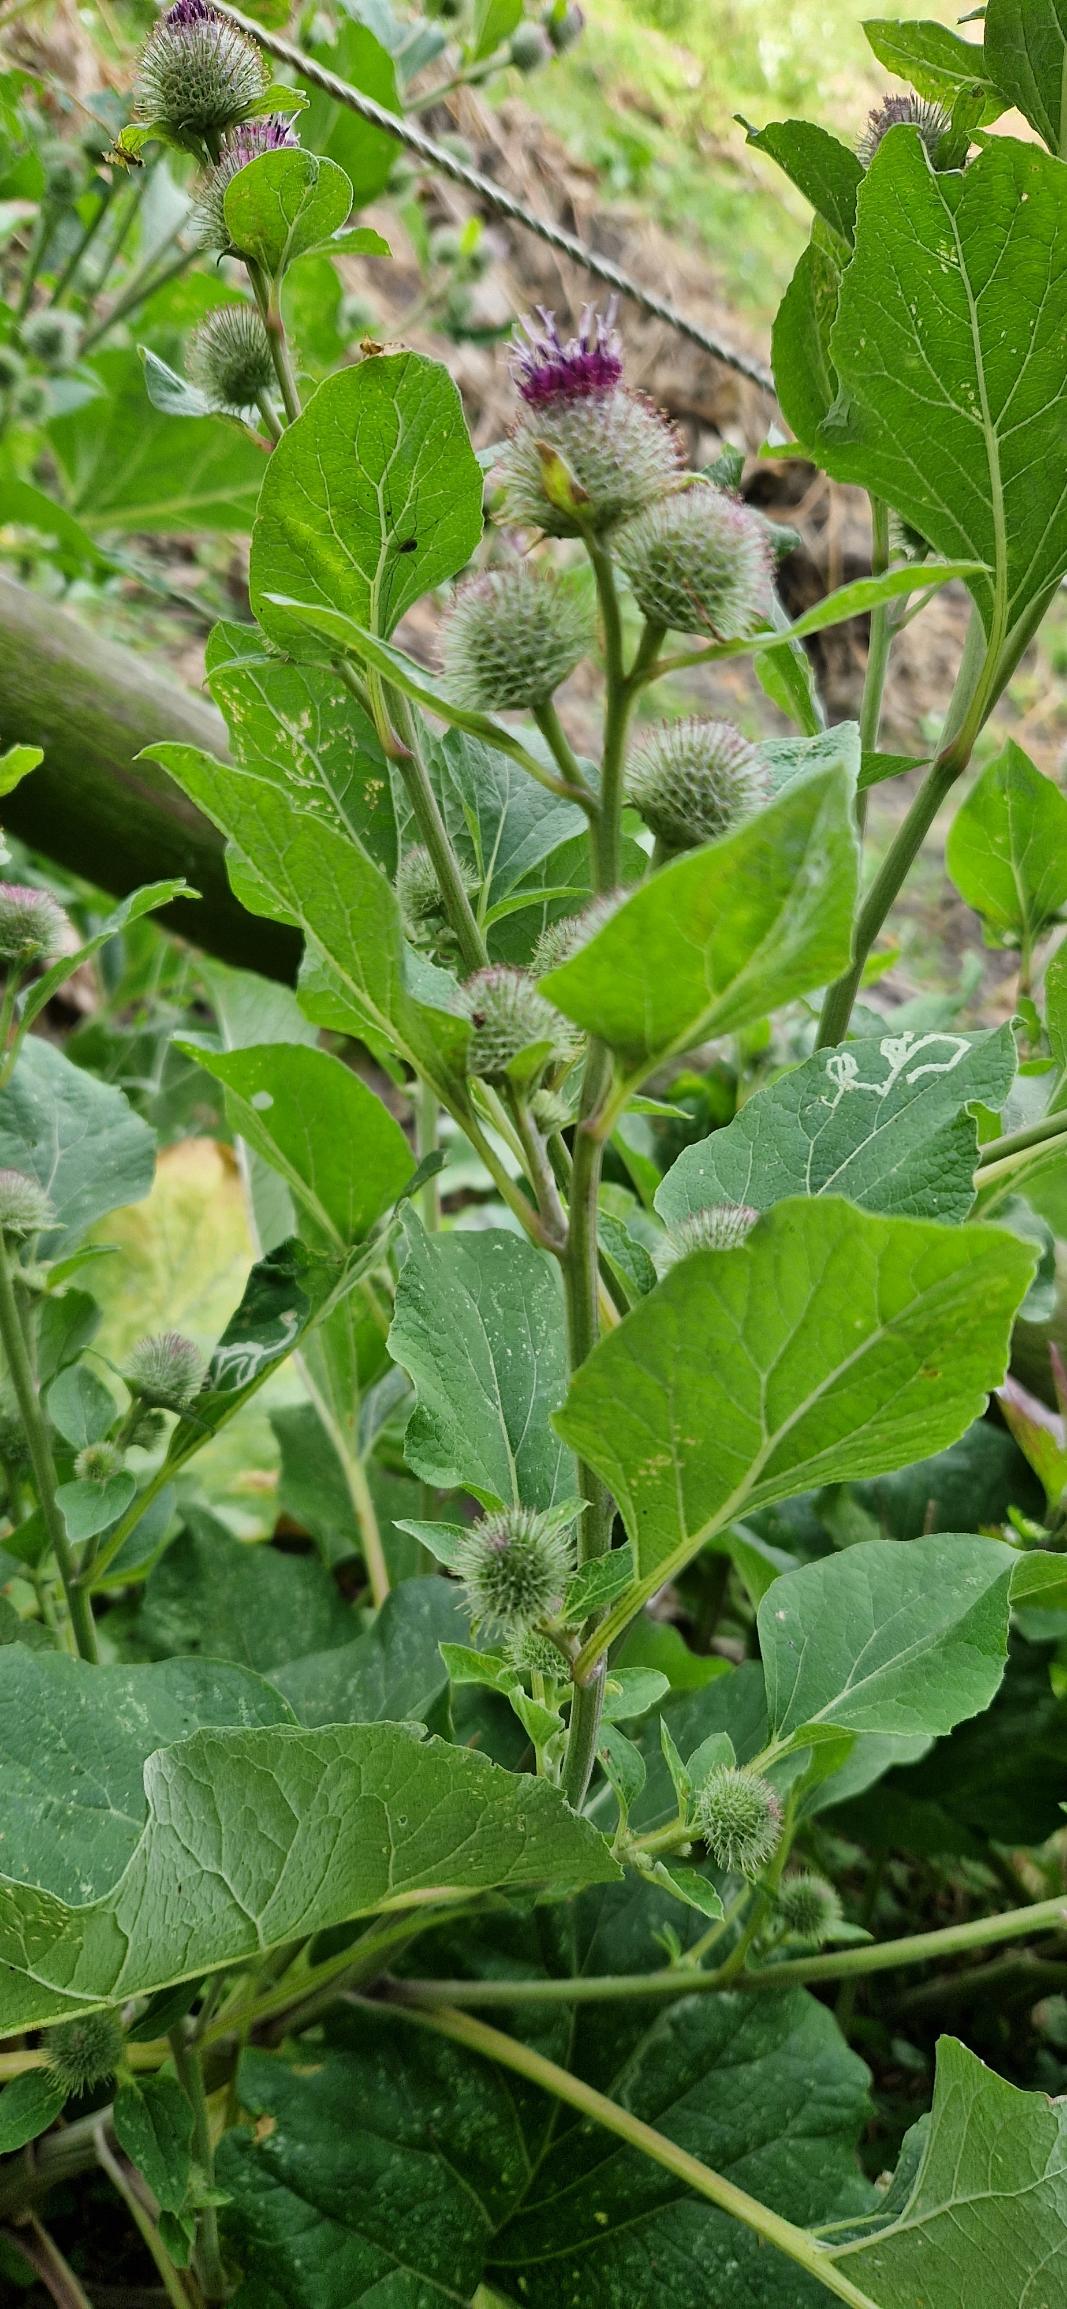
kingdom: Plantae
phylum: Tracheophyta
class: Magnoliopsida
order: Asterales
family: Asteraceae
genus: Arctium
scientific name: Arctium minus
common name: Liden burre
